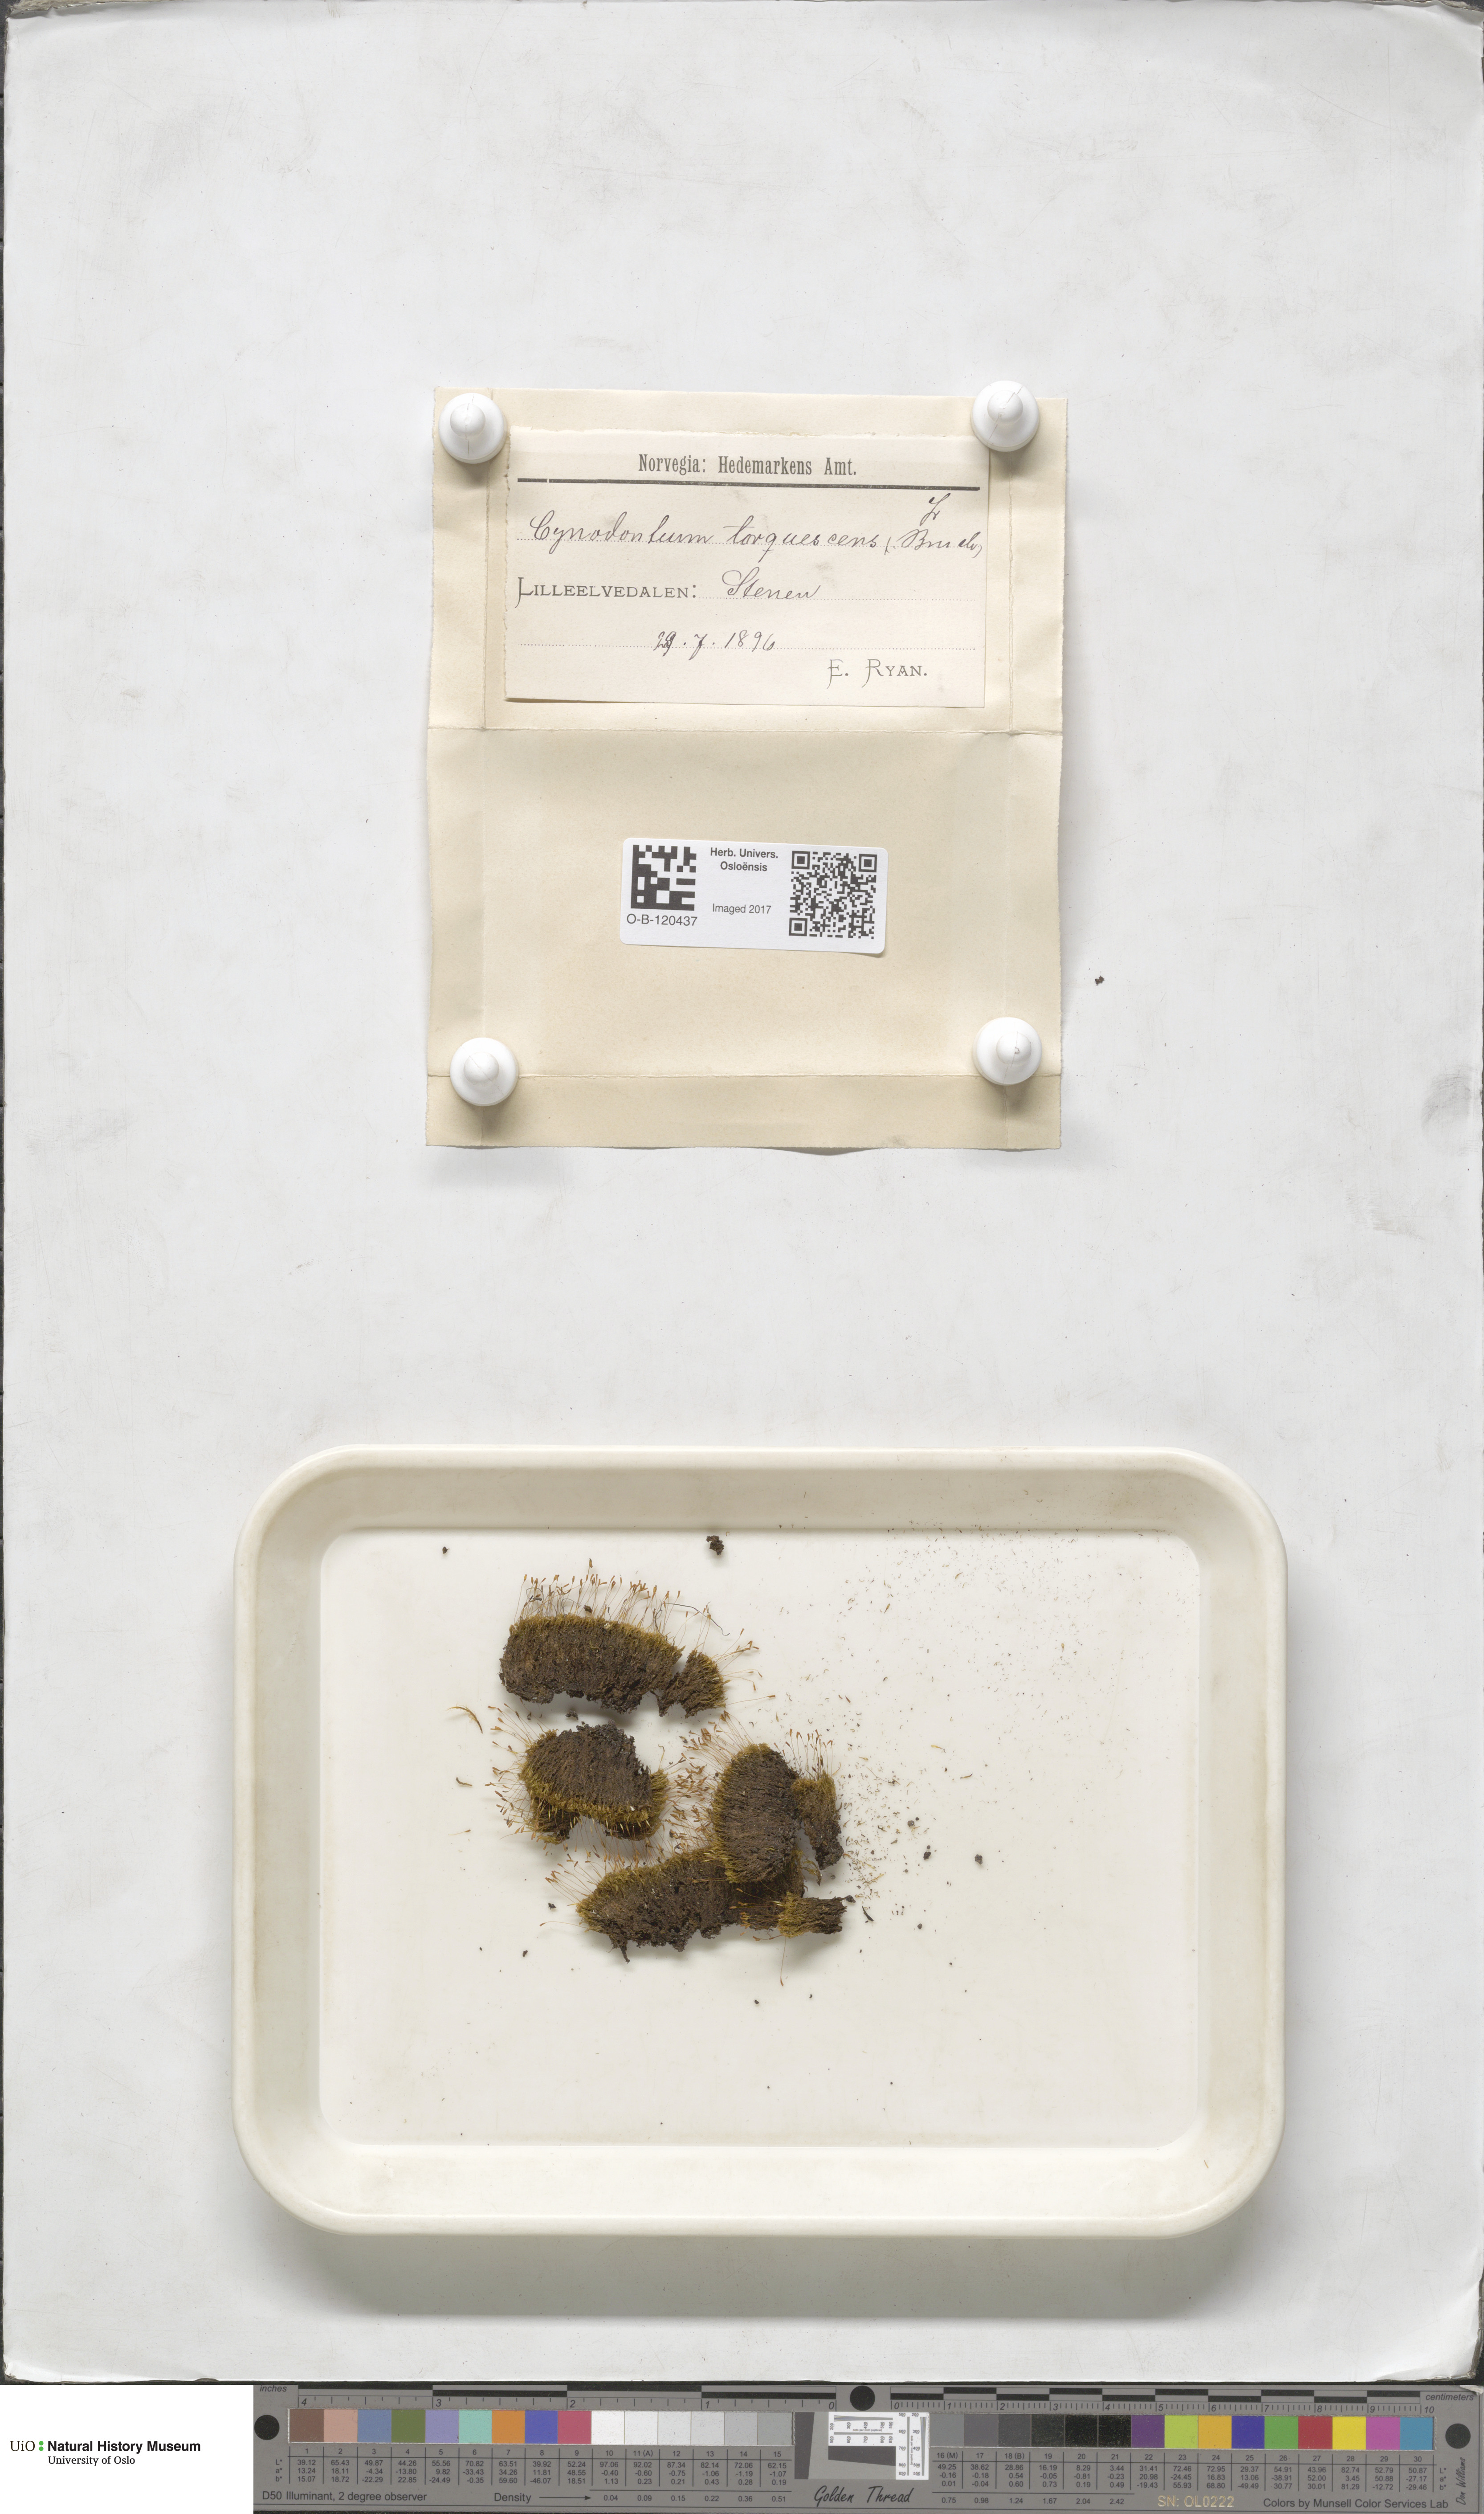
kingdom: Plantae
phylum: Bryophyta
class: Bryopsida
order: Dicranales
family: Rhabdoweisiaceae
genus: Cynodontium
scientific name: Cynodontium tenellum
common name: Delicate dogtooth moss
